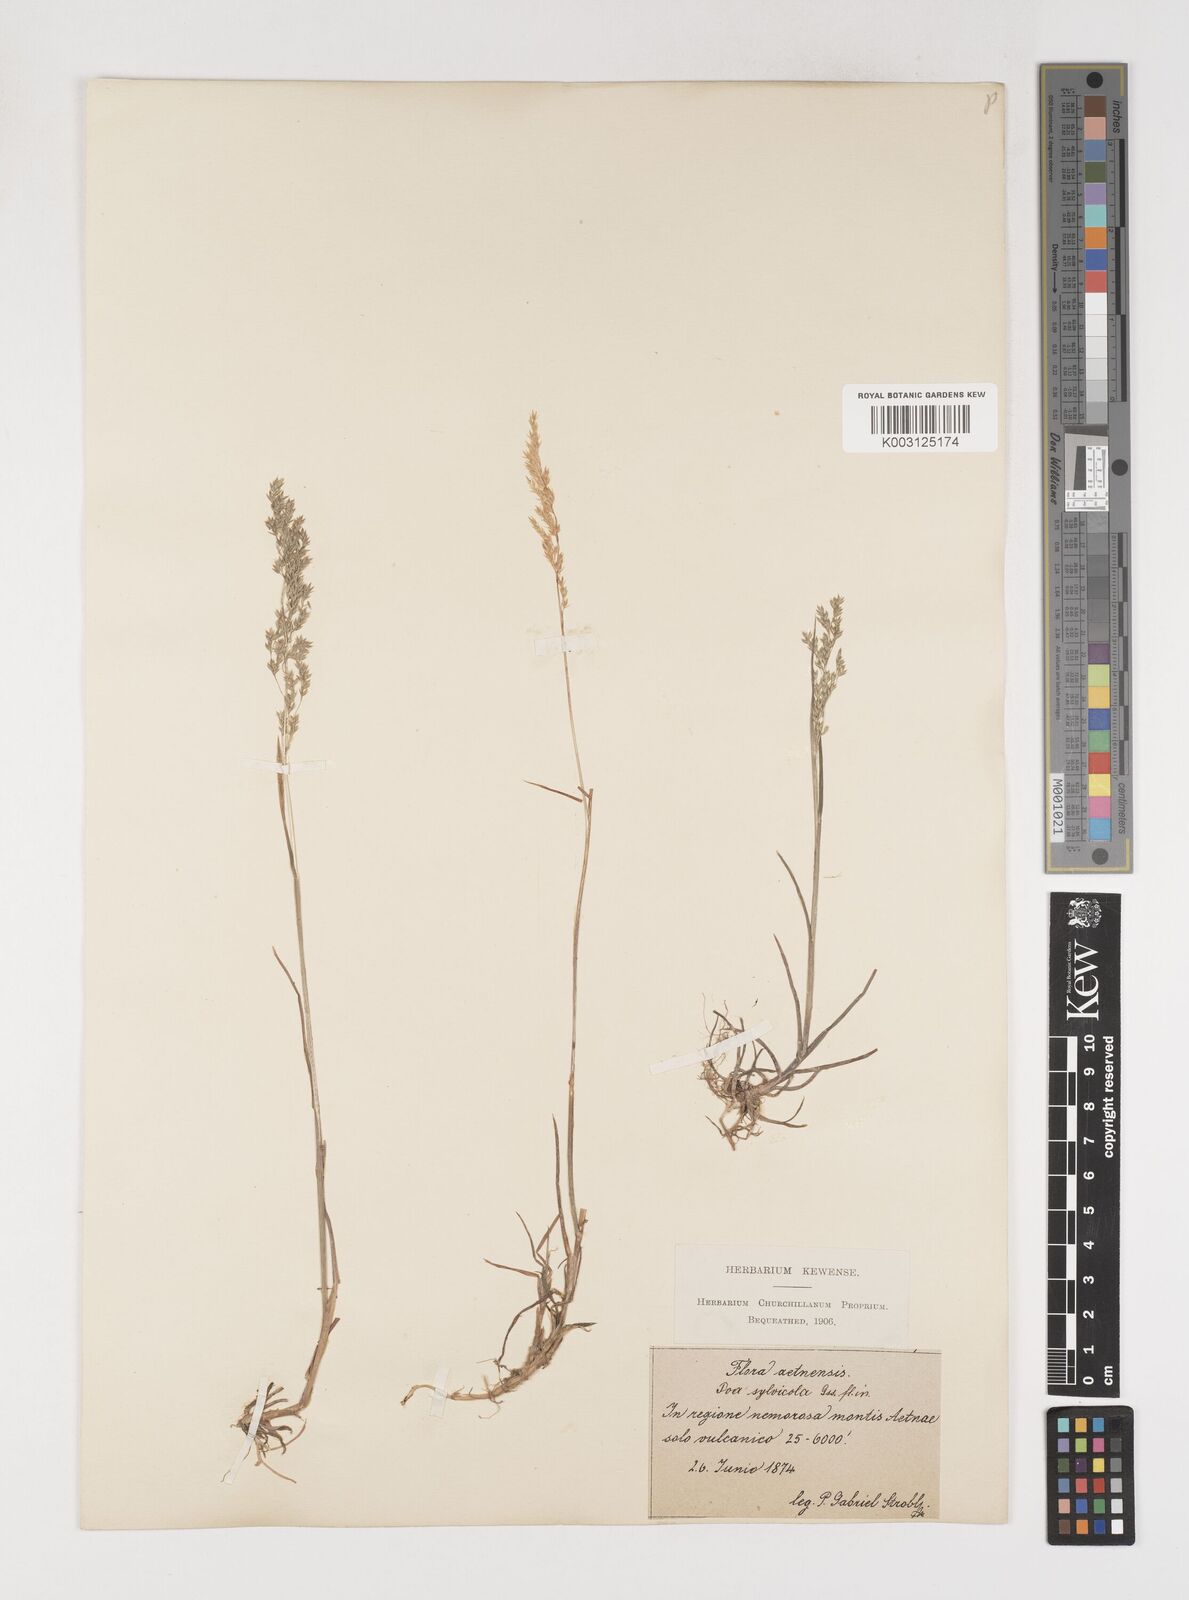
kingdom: Plantae
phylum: Tracheophyta
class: Liliopsida
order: Poales
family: Poaceae
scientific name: Poaceae
